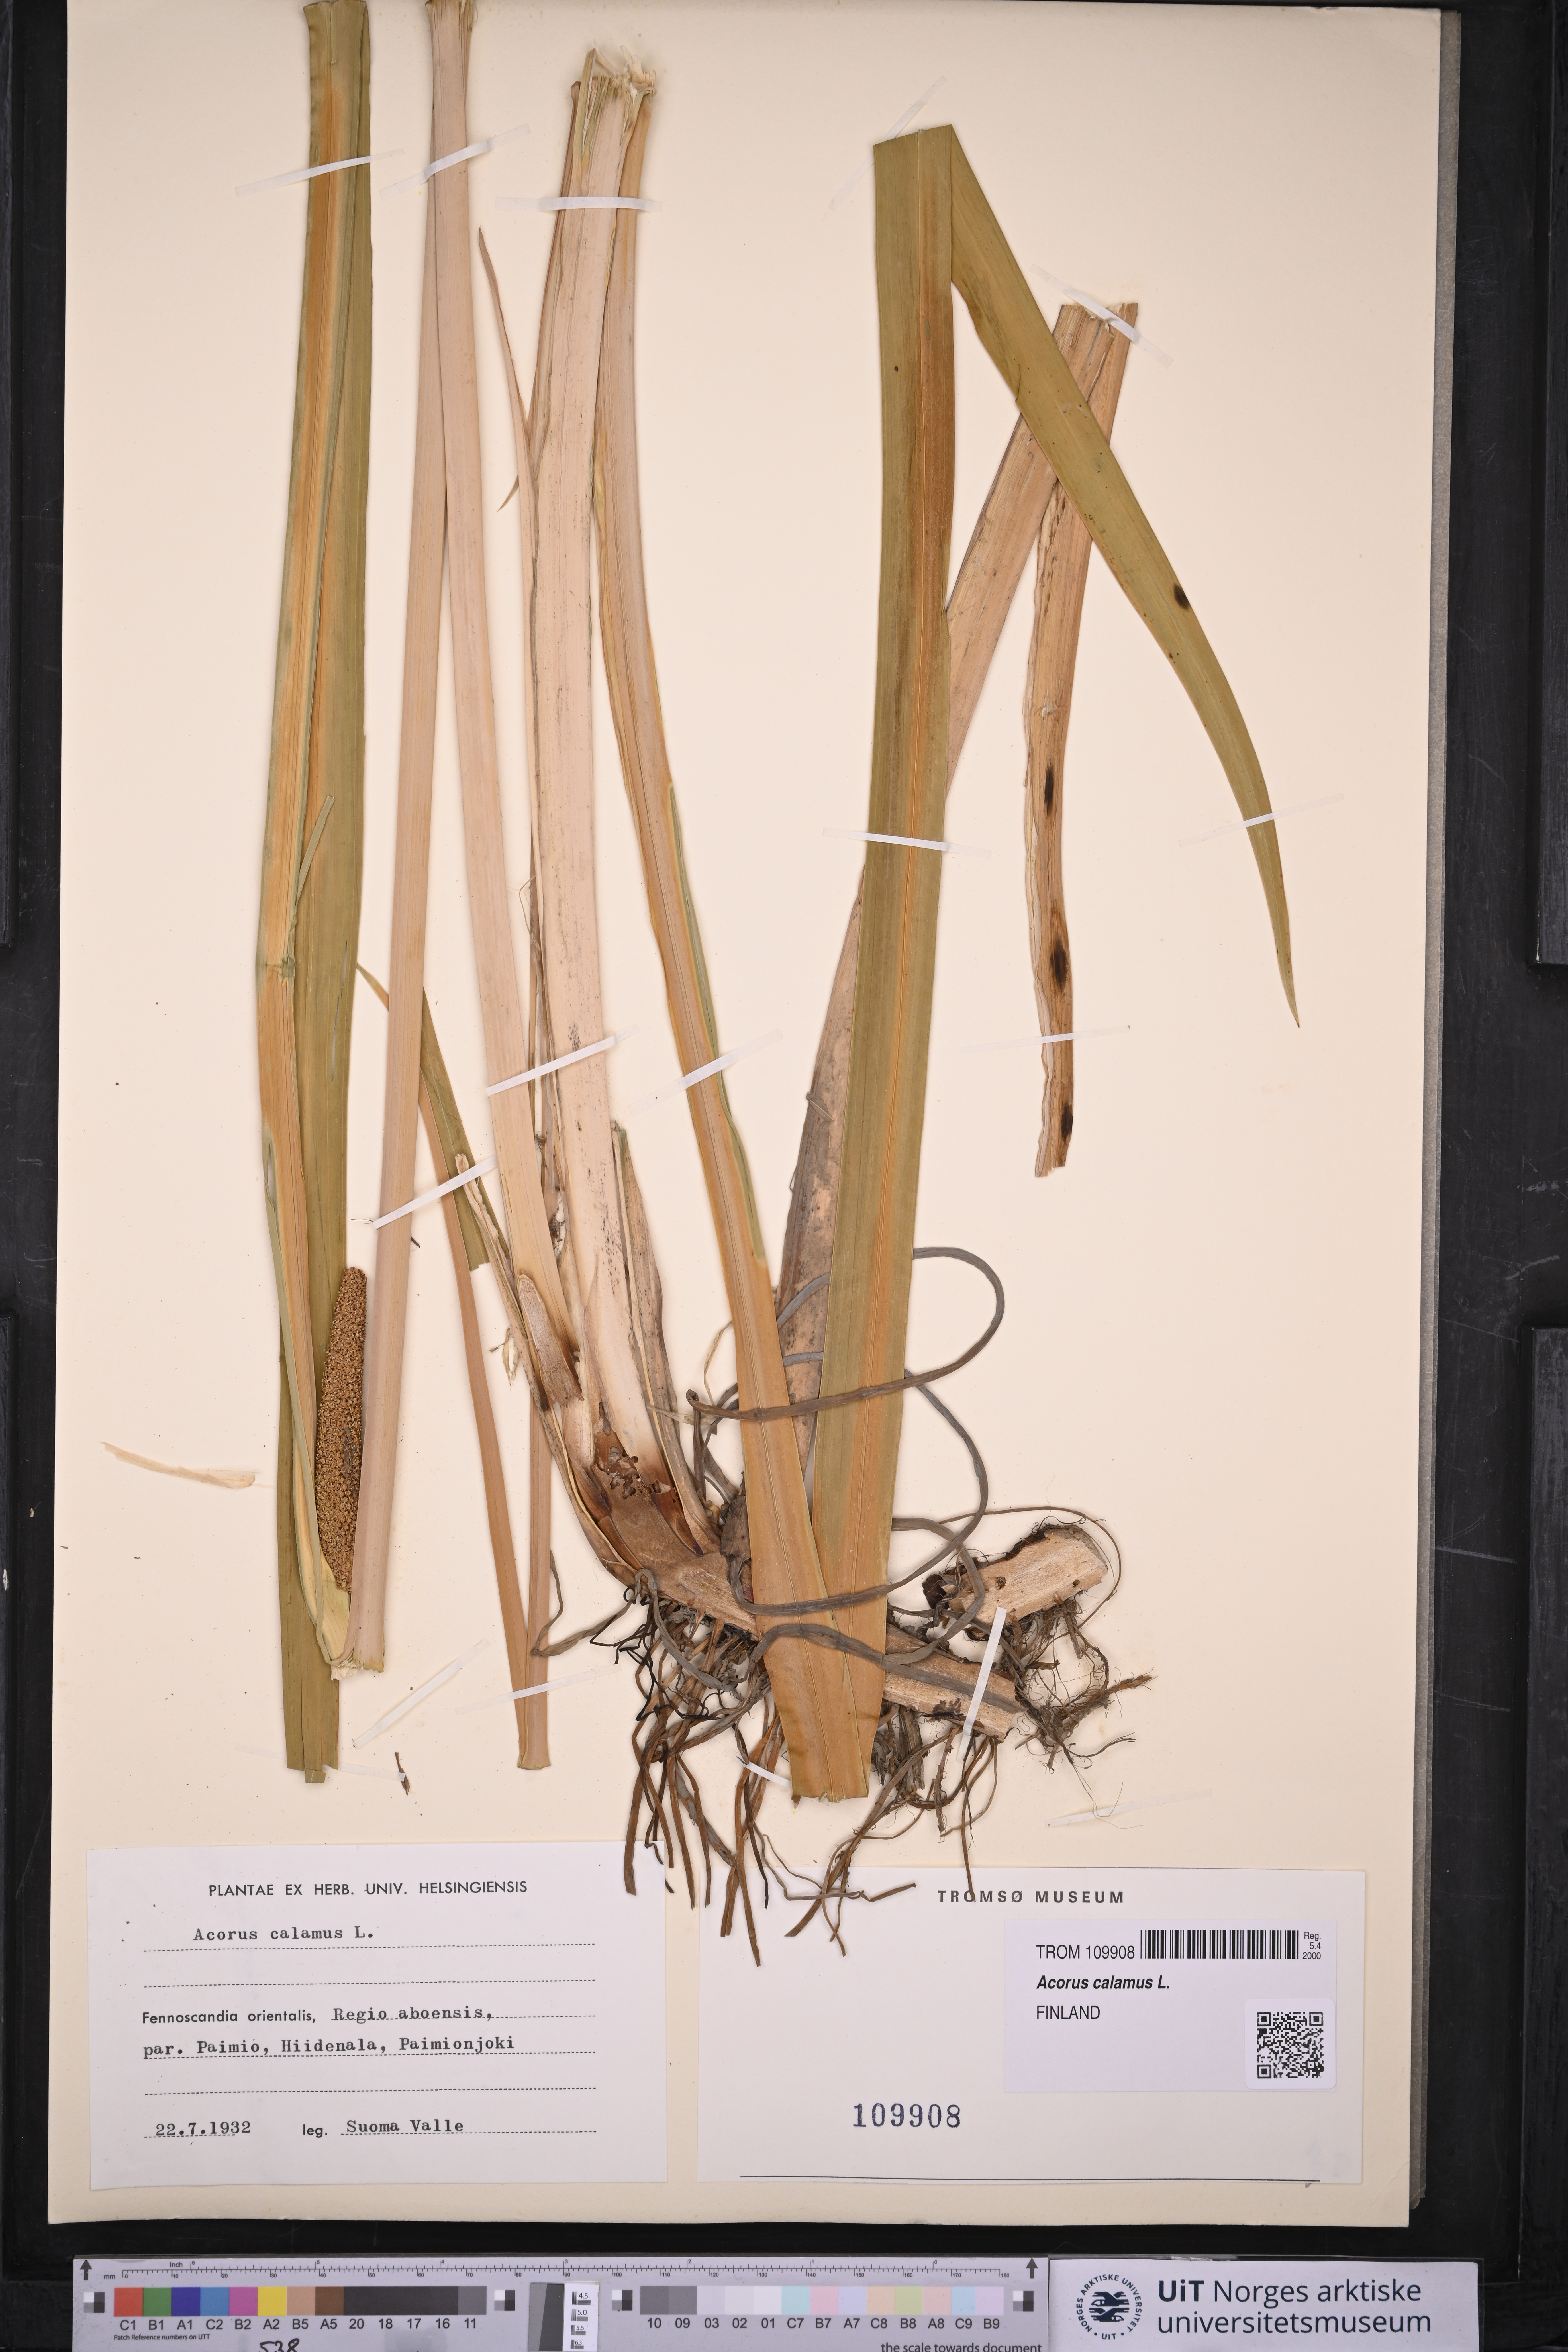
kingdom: Plantae
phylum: Tracheophyta
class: Liliopsida
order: Acorales
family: Acoraceae
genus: Acorus
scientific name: Acorus calamus
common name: Sweet-flag
